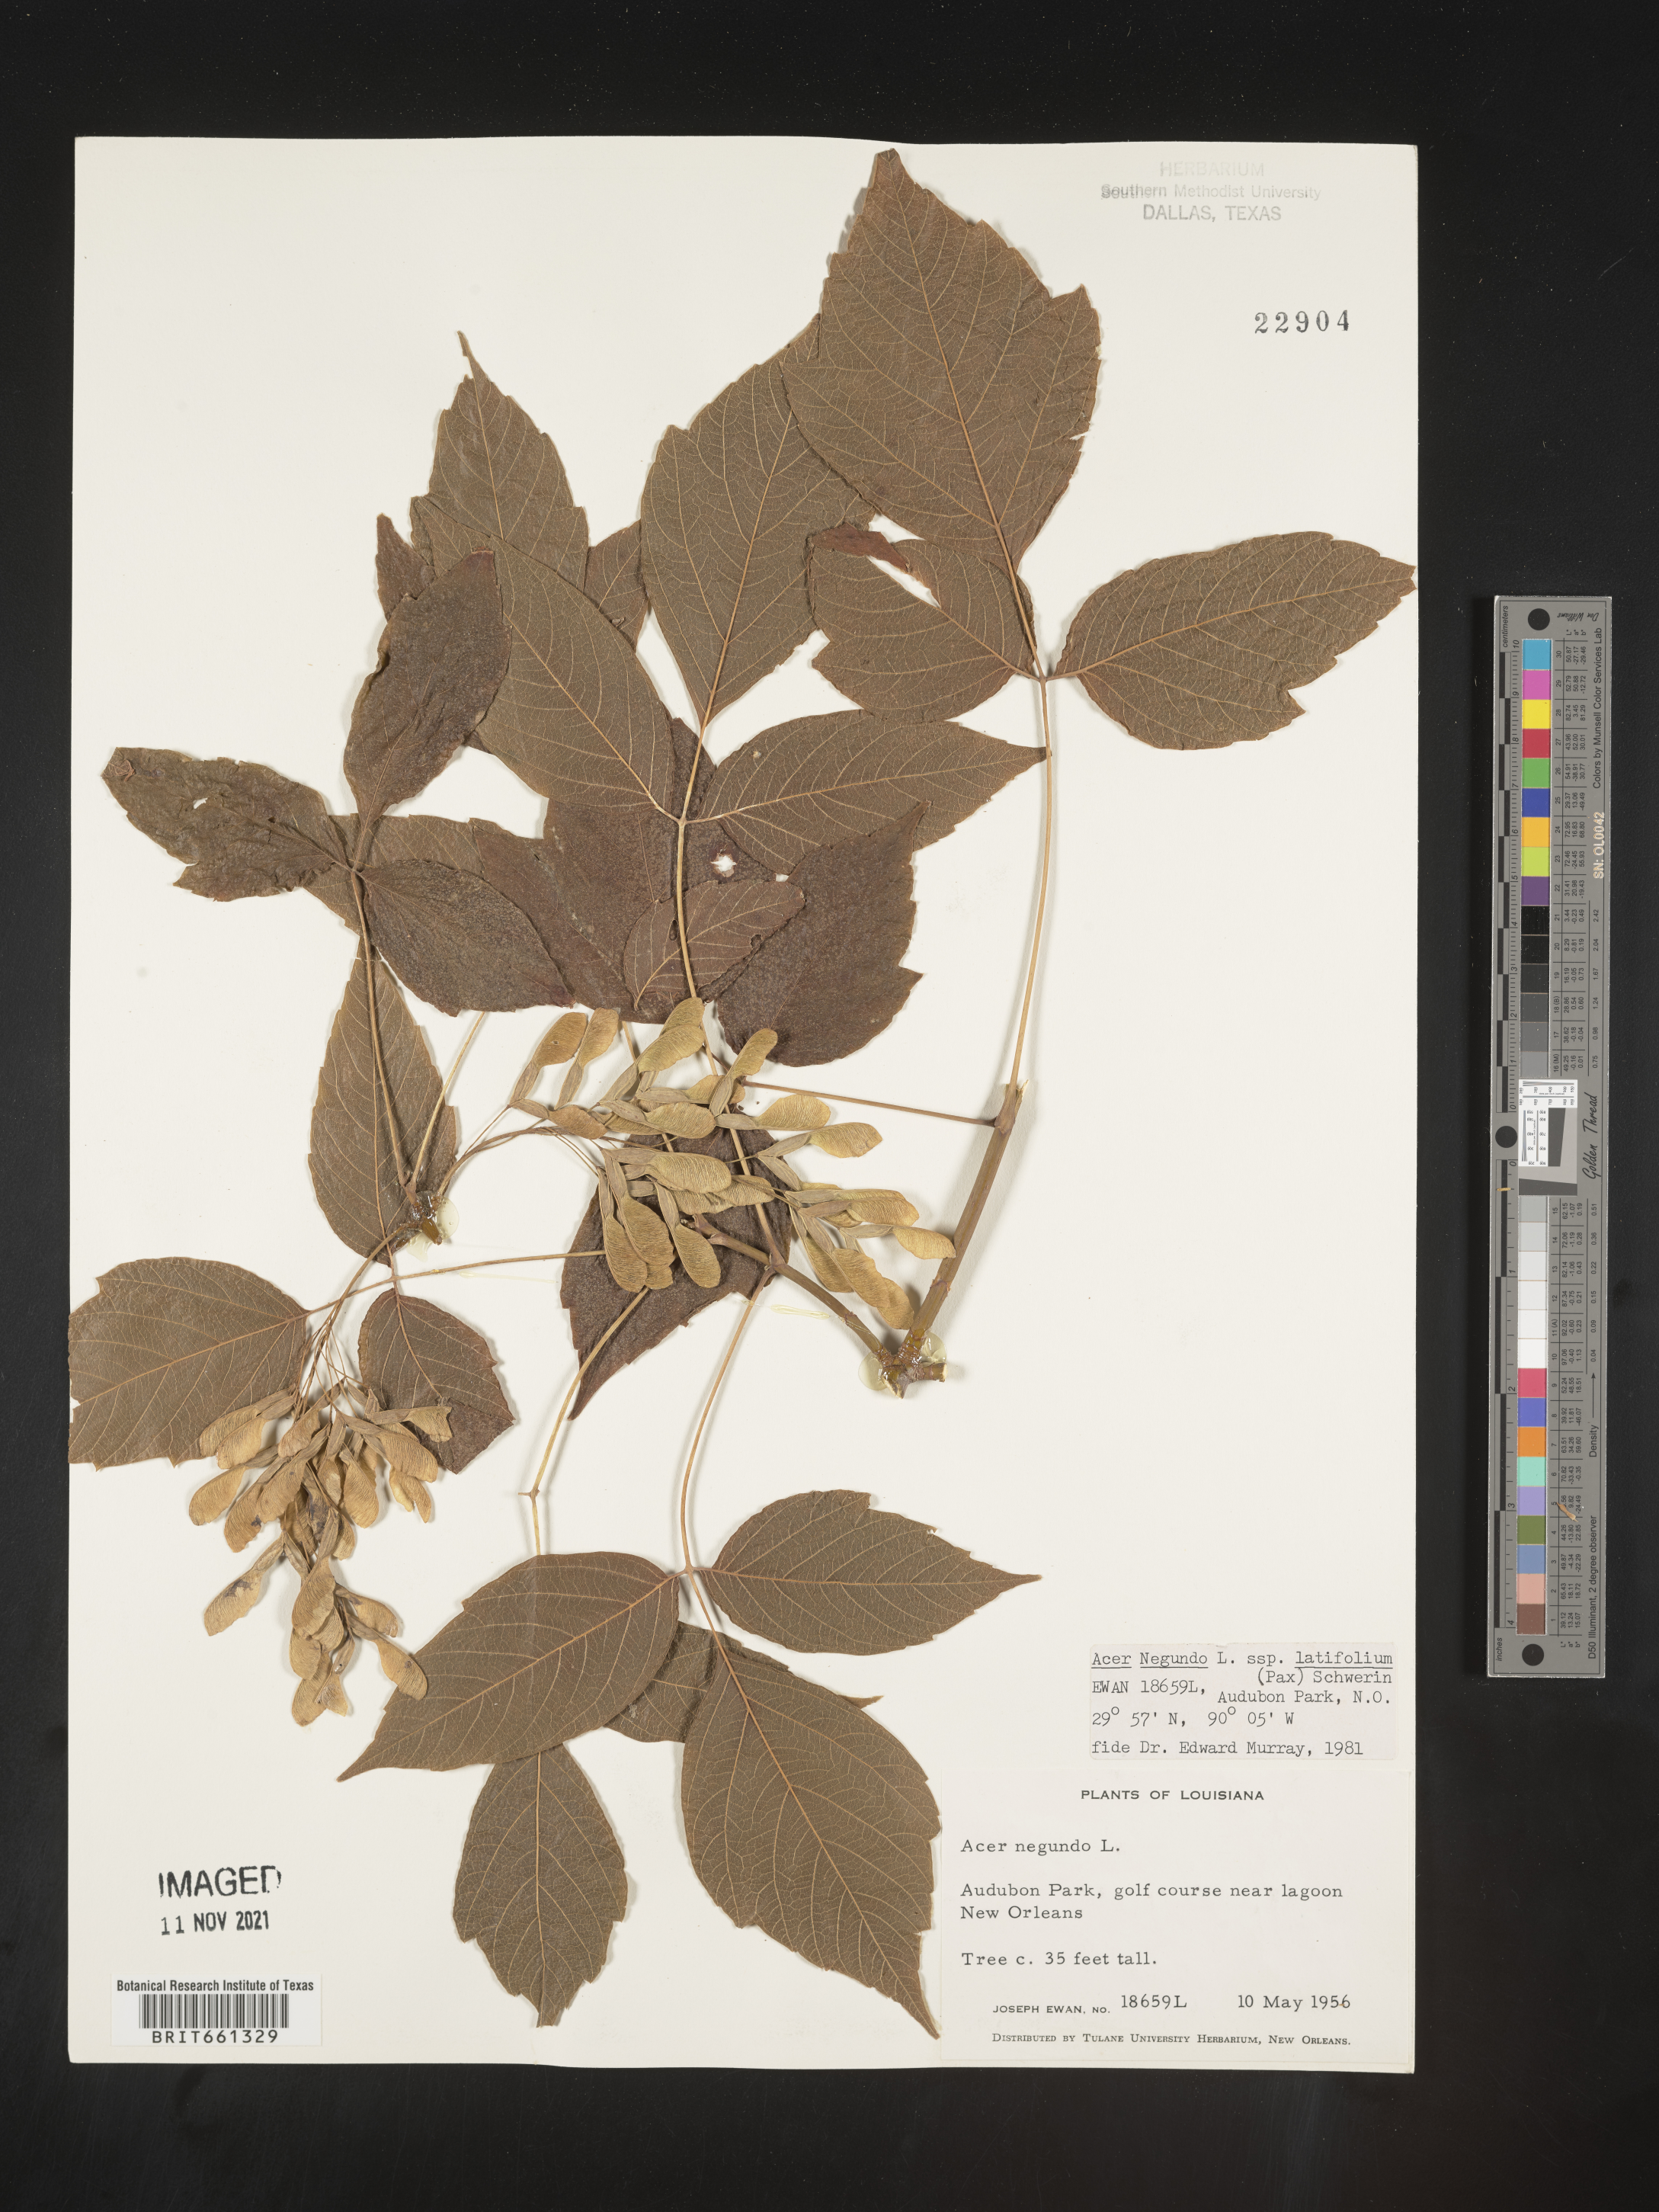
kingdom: Plantae
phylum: Tracheophyta
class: Magnoliopsida
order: Sapindales
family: Sapindaceae
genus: Acer
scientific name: Acer negundo
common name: Ashleaf maple
